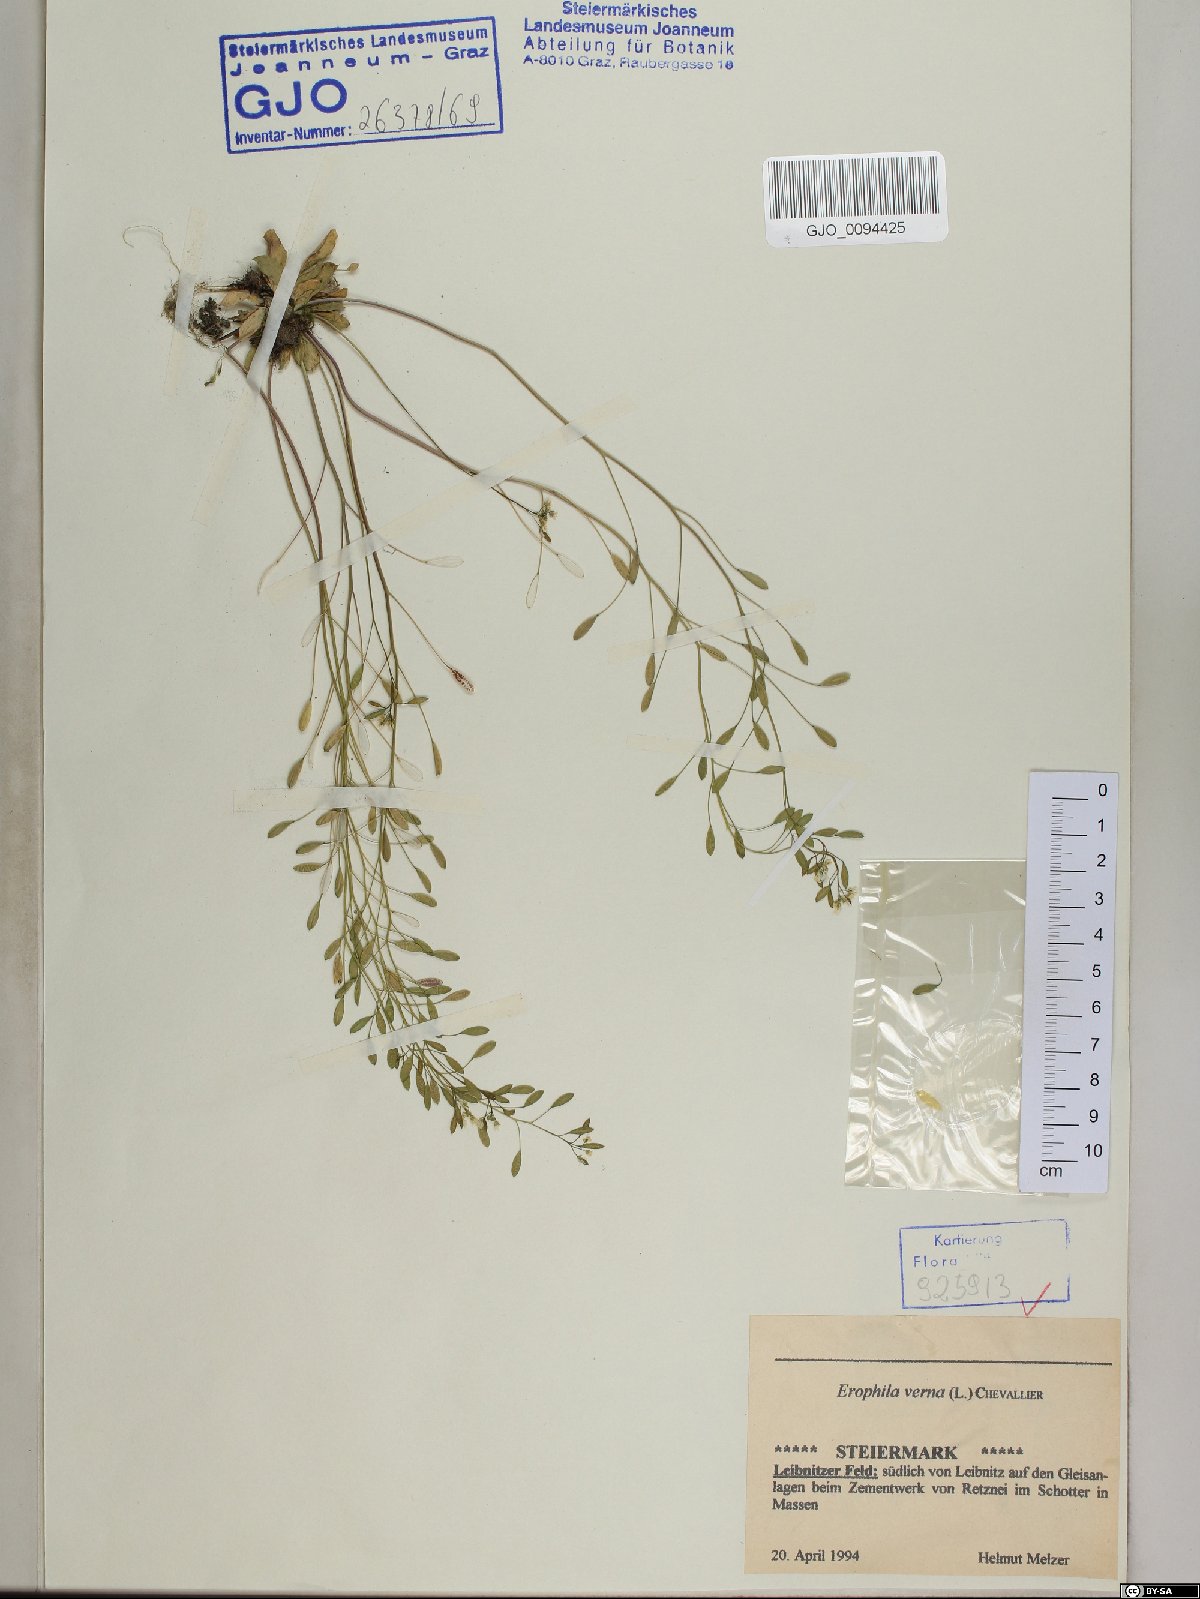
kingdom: Plantae
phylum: Tracheophyta
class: Magnoliopsida
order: Brassicales
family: Brassicaceae
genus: Draba
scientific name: Draba verna
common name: Spring draba
